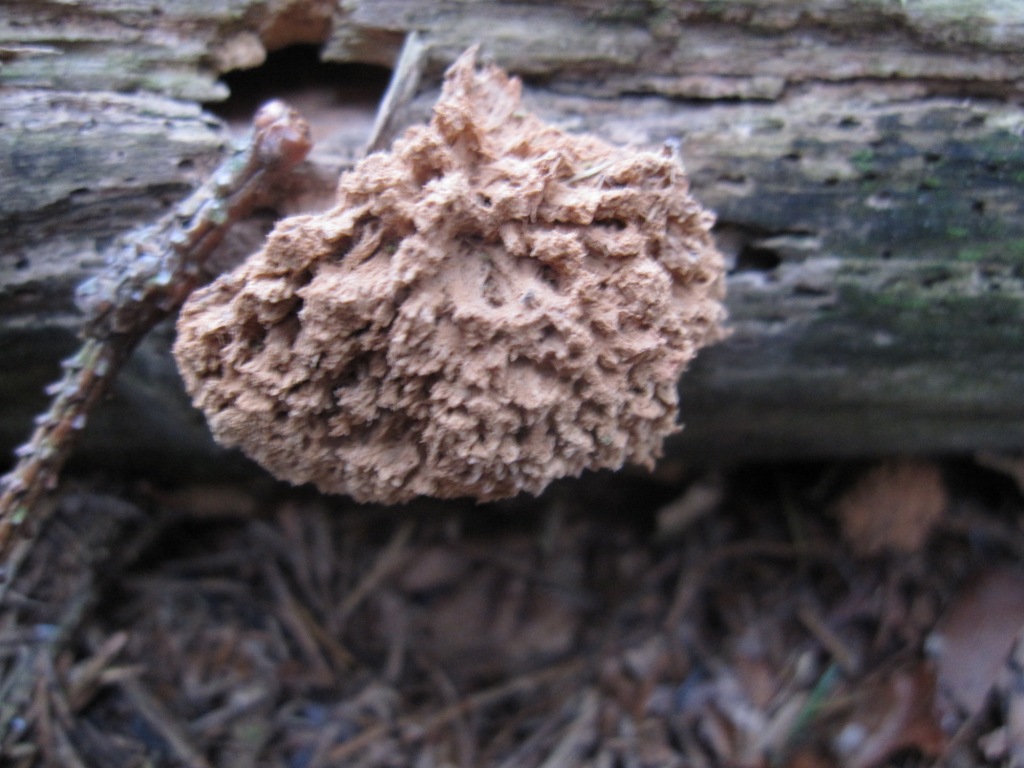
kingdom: Fungi
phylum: Basidiomycota
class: Agaricomycetes
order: Polyporales
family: Dacryobolaceae
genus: Postia
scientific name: Postia ptychogaster
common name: støvende kødporesvamp
